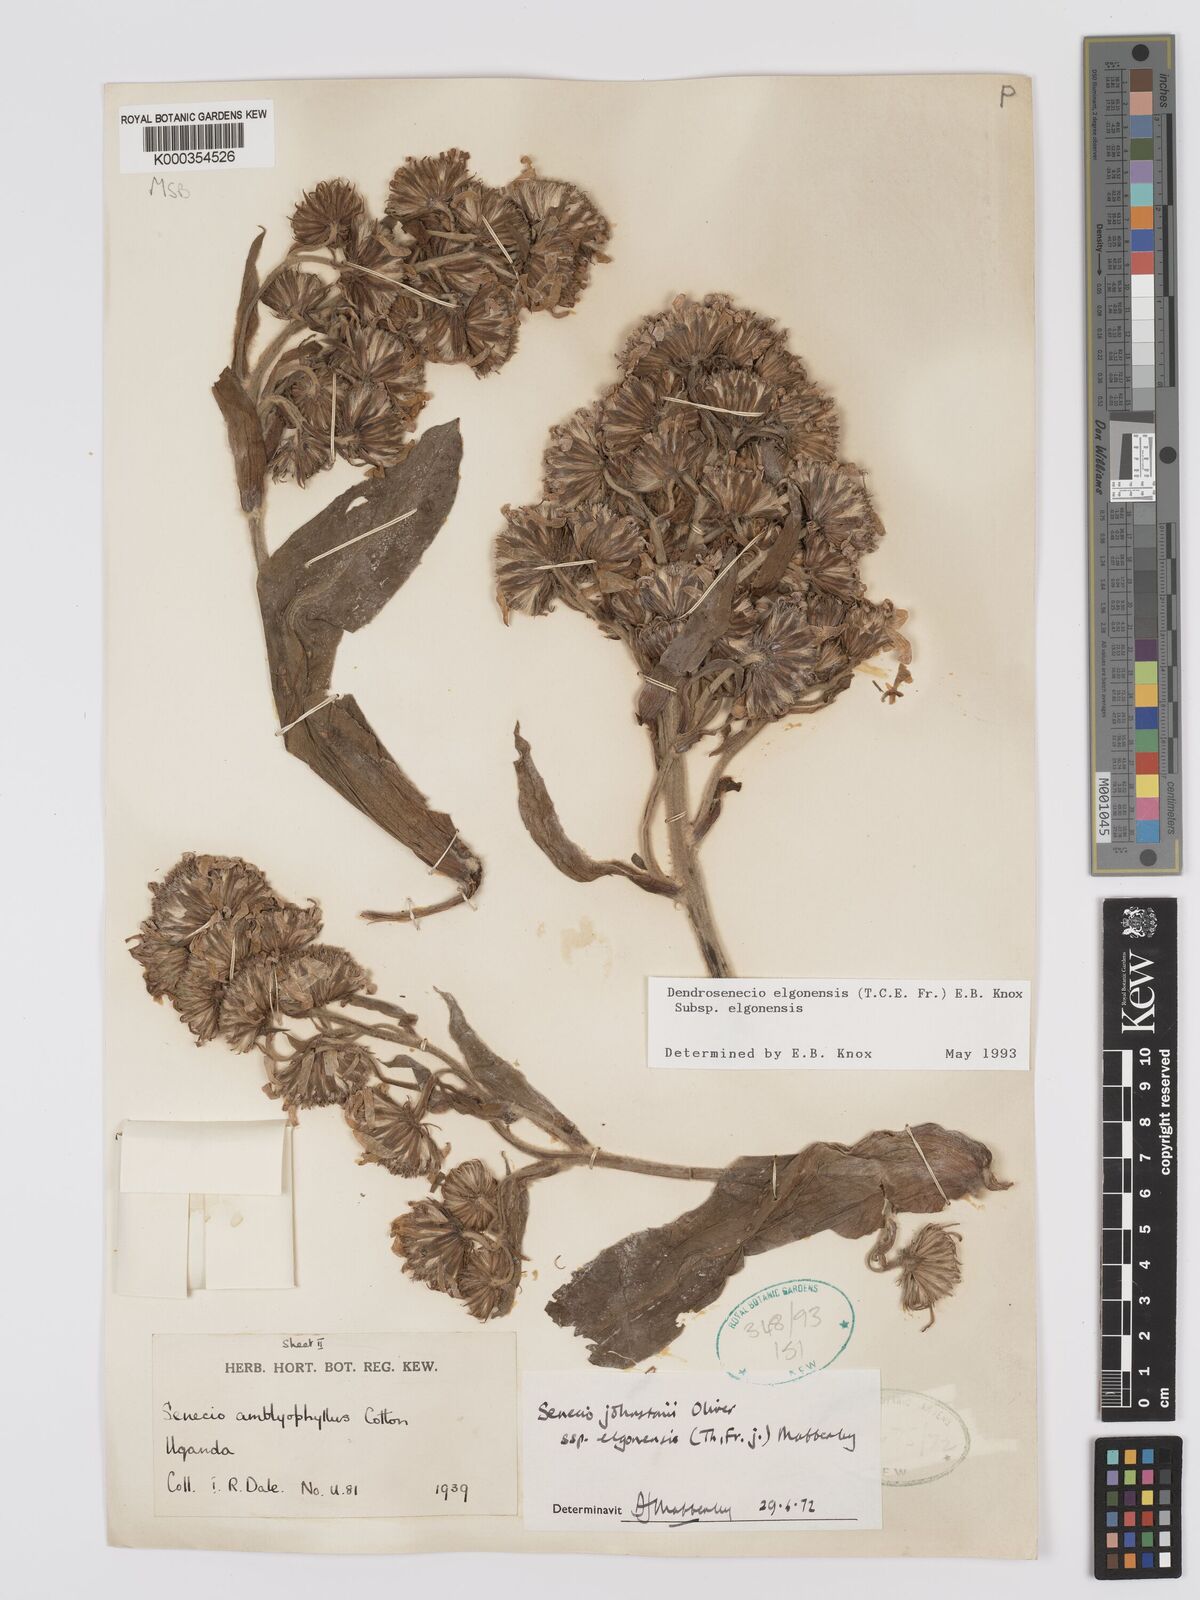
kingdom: Plantae
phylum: Tracheophyta
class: Magnoliopsida
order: Asterales
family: Asteraceae
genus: Dendrosenecio
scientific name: Dendrosenecio elgonensis
